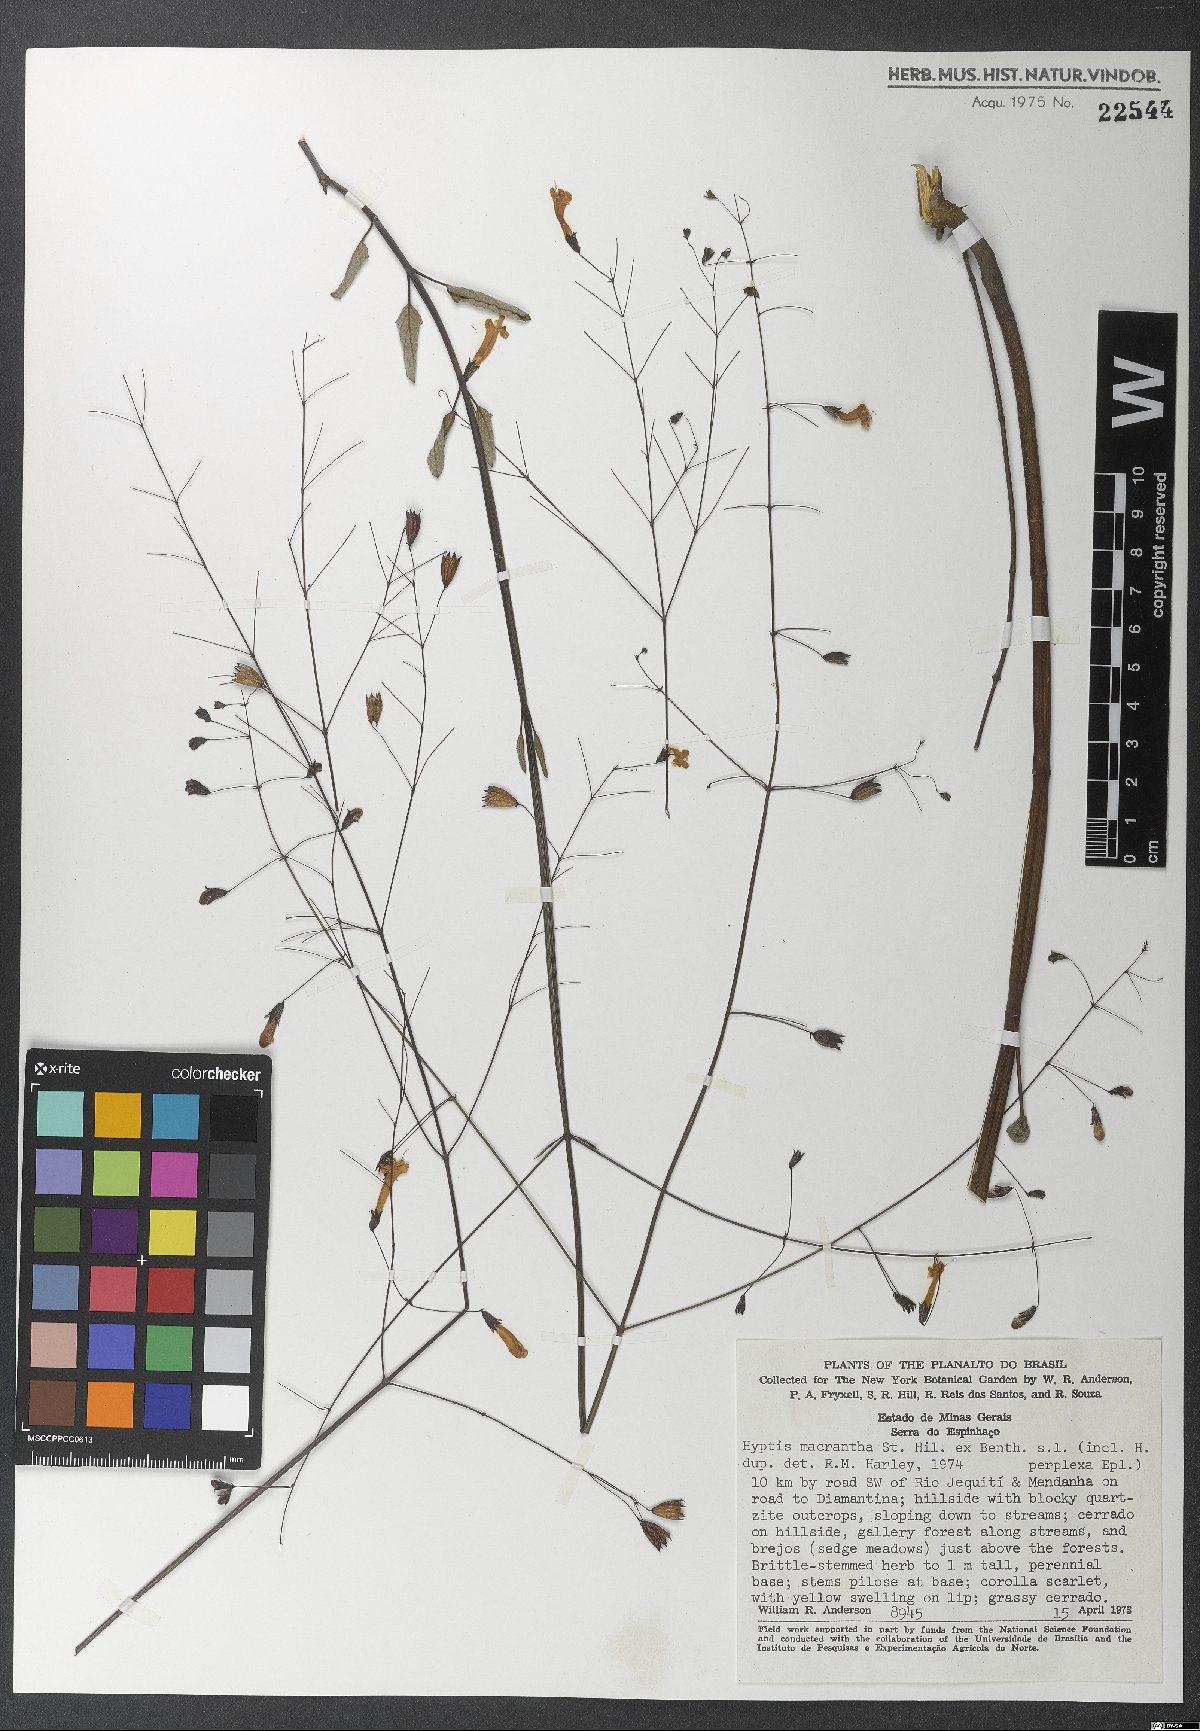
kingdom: Plantae
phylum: Tracheophyta
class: Magnoliopsida
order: Lamiales
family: Lamiaceae
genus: Hypenia
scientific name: Hypenia macrantha
